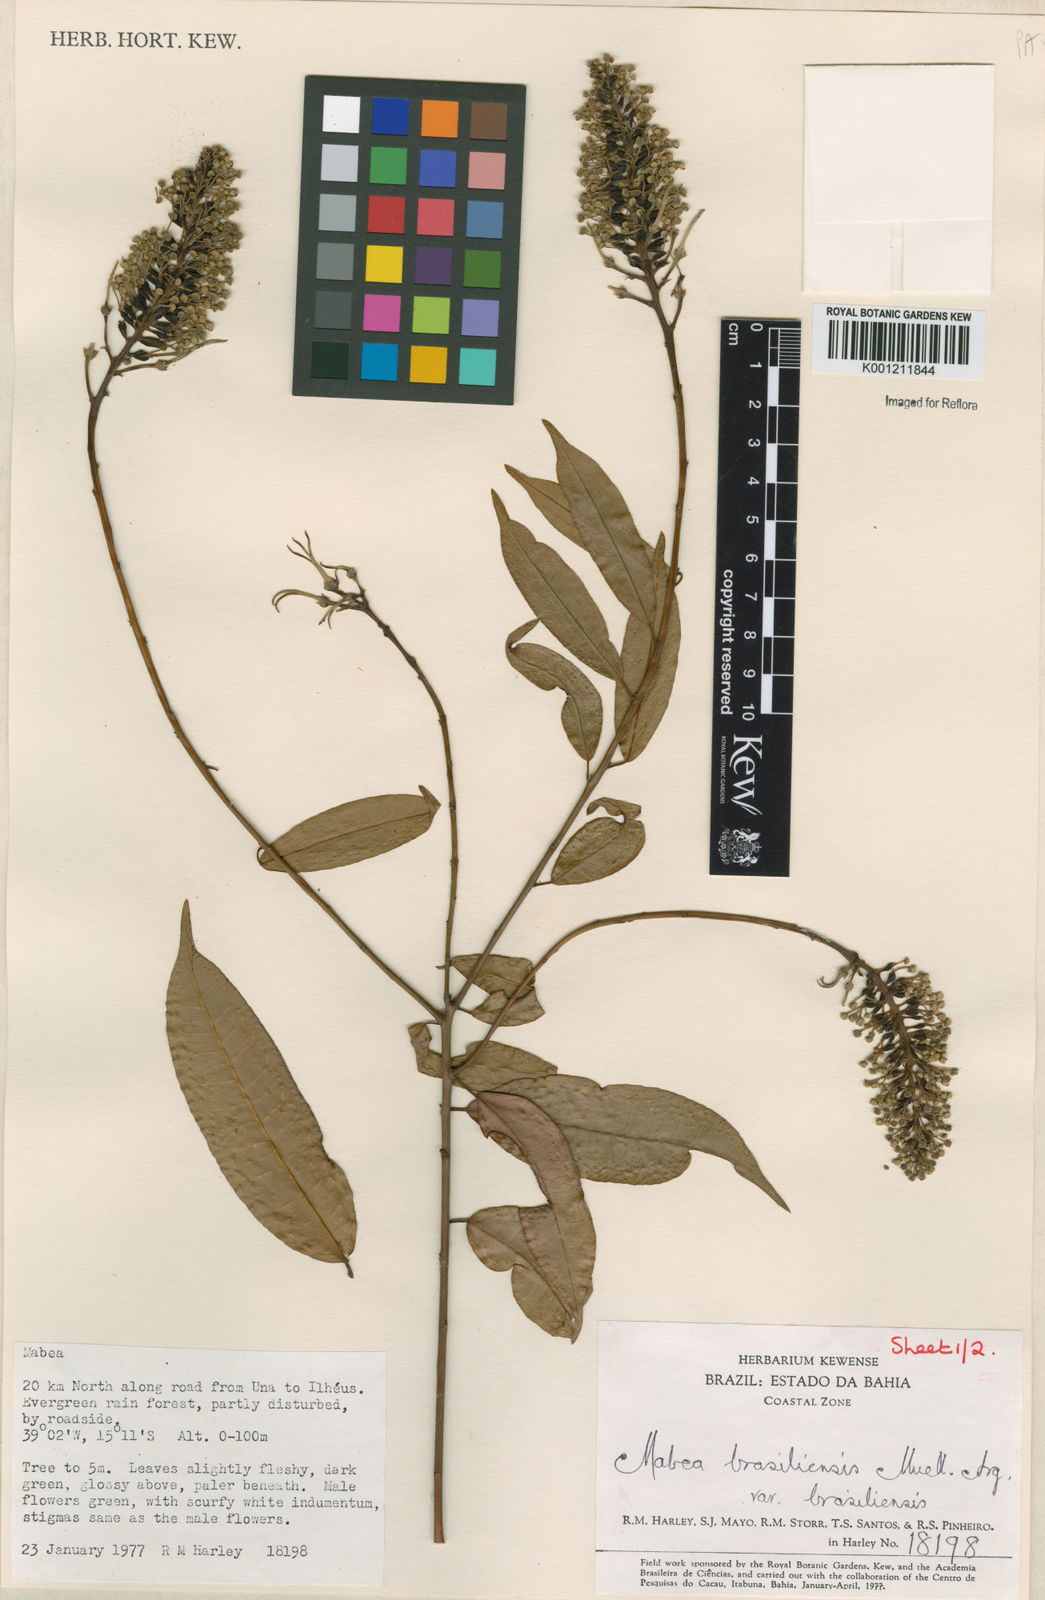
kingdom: Plantae
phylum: Tracheophyta
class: Magnoliopsida
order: Malpighiales
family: Euphorbiaceae
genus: Mabea
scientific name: Mabea piriri
